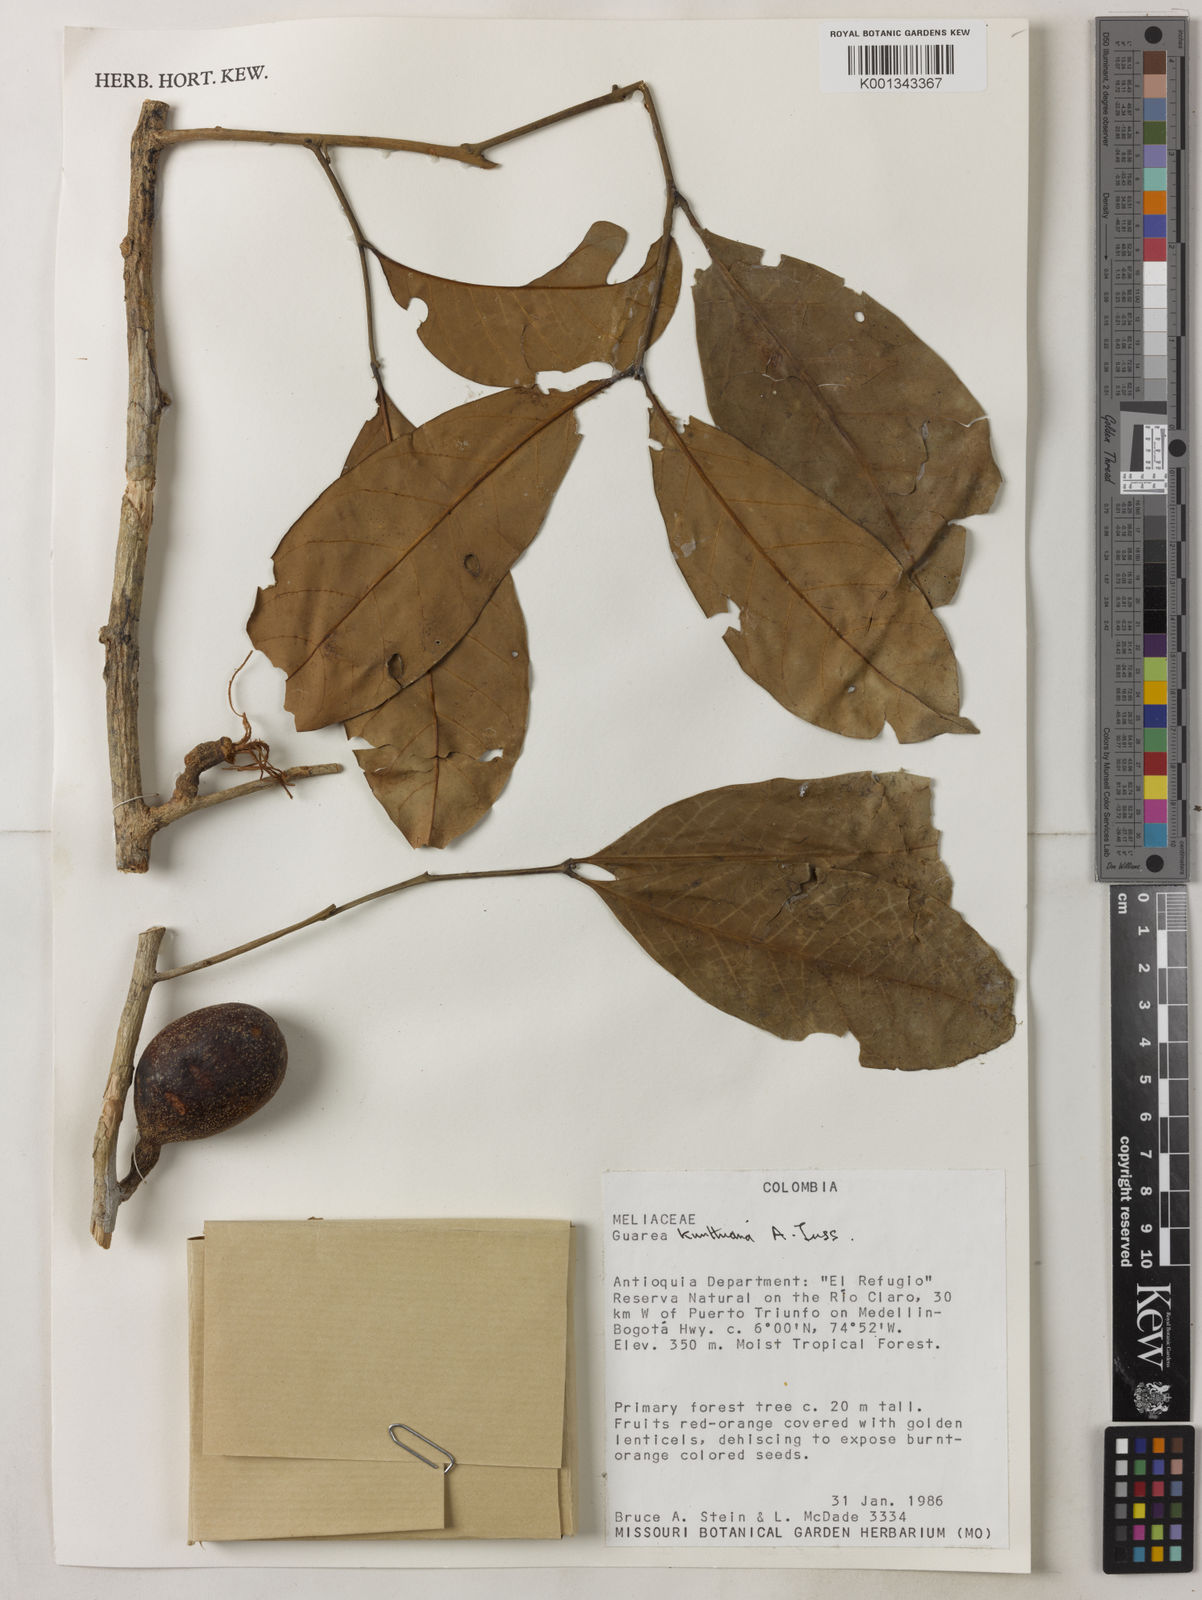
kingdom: Plantae
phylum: Tracheophyta
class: Magnoliopsida
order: Sapindales
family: Meliaceae
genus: Guarea
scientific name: Guarea kunthiana
